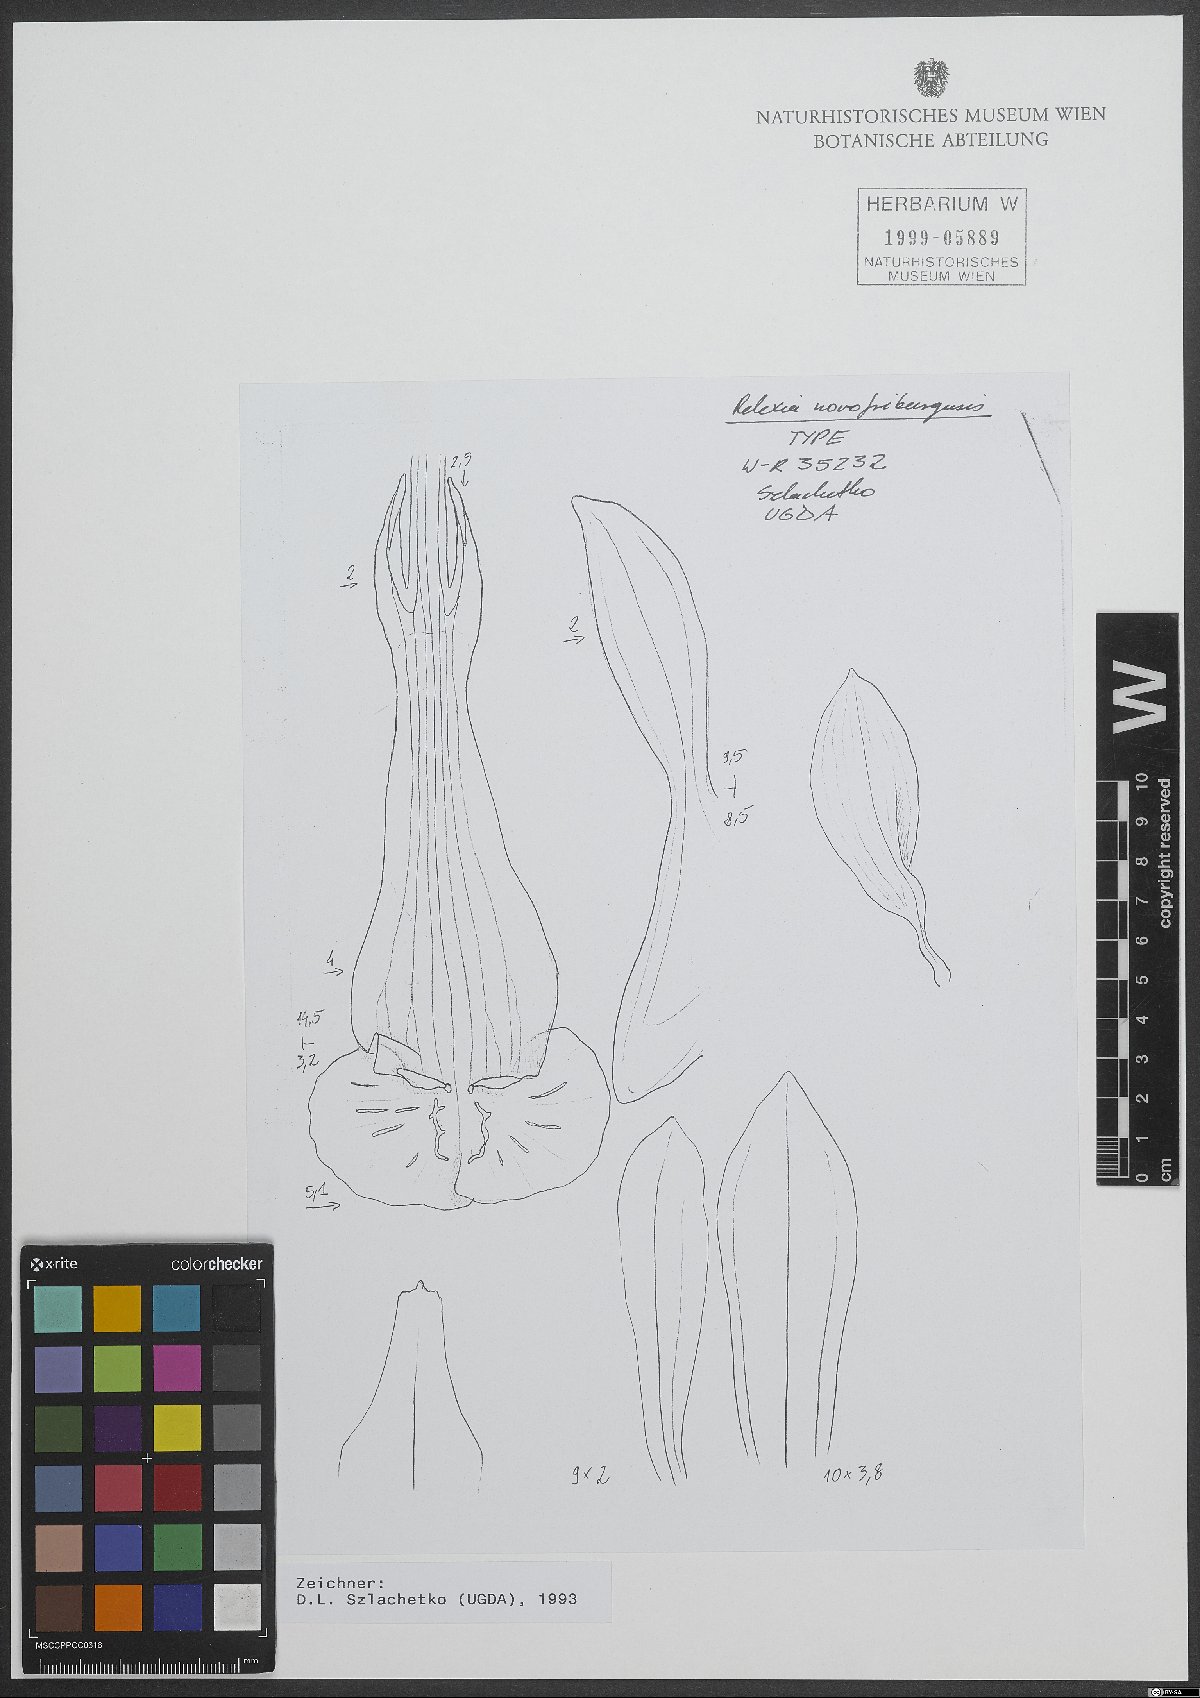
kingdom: Plantae
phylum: Tracheophyta
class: Liliopsida
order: Asparagales
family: Orchidaceae
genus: Pelexia
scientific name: Pelexia novofriburgensis
